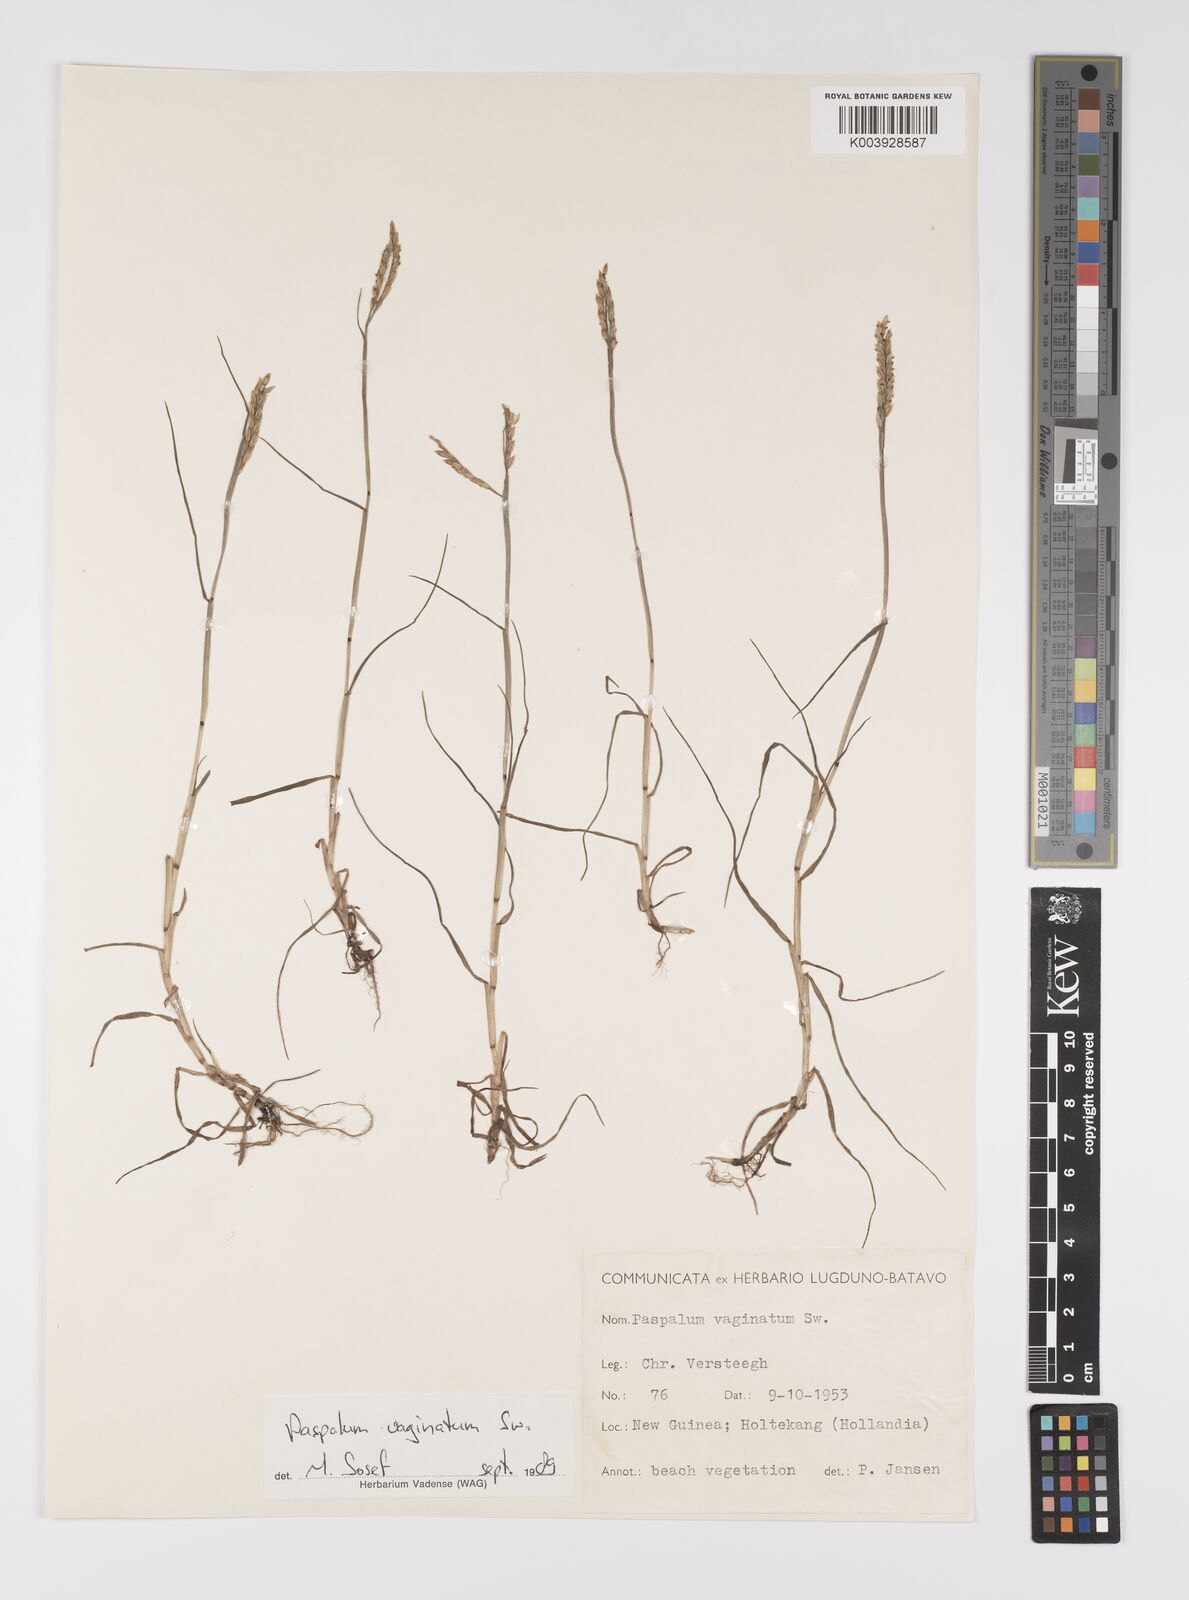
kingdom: Plantae
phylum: Tracheophyta
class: Liliopsida
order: Poales
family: Poaceae
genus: Paspalum
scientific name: Paspalum vaginatum
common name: Seashore paspalum
